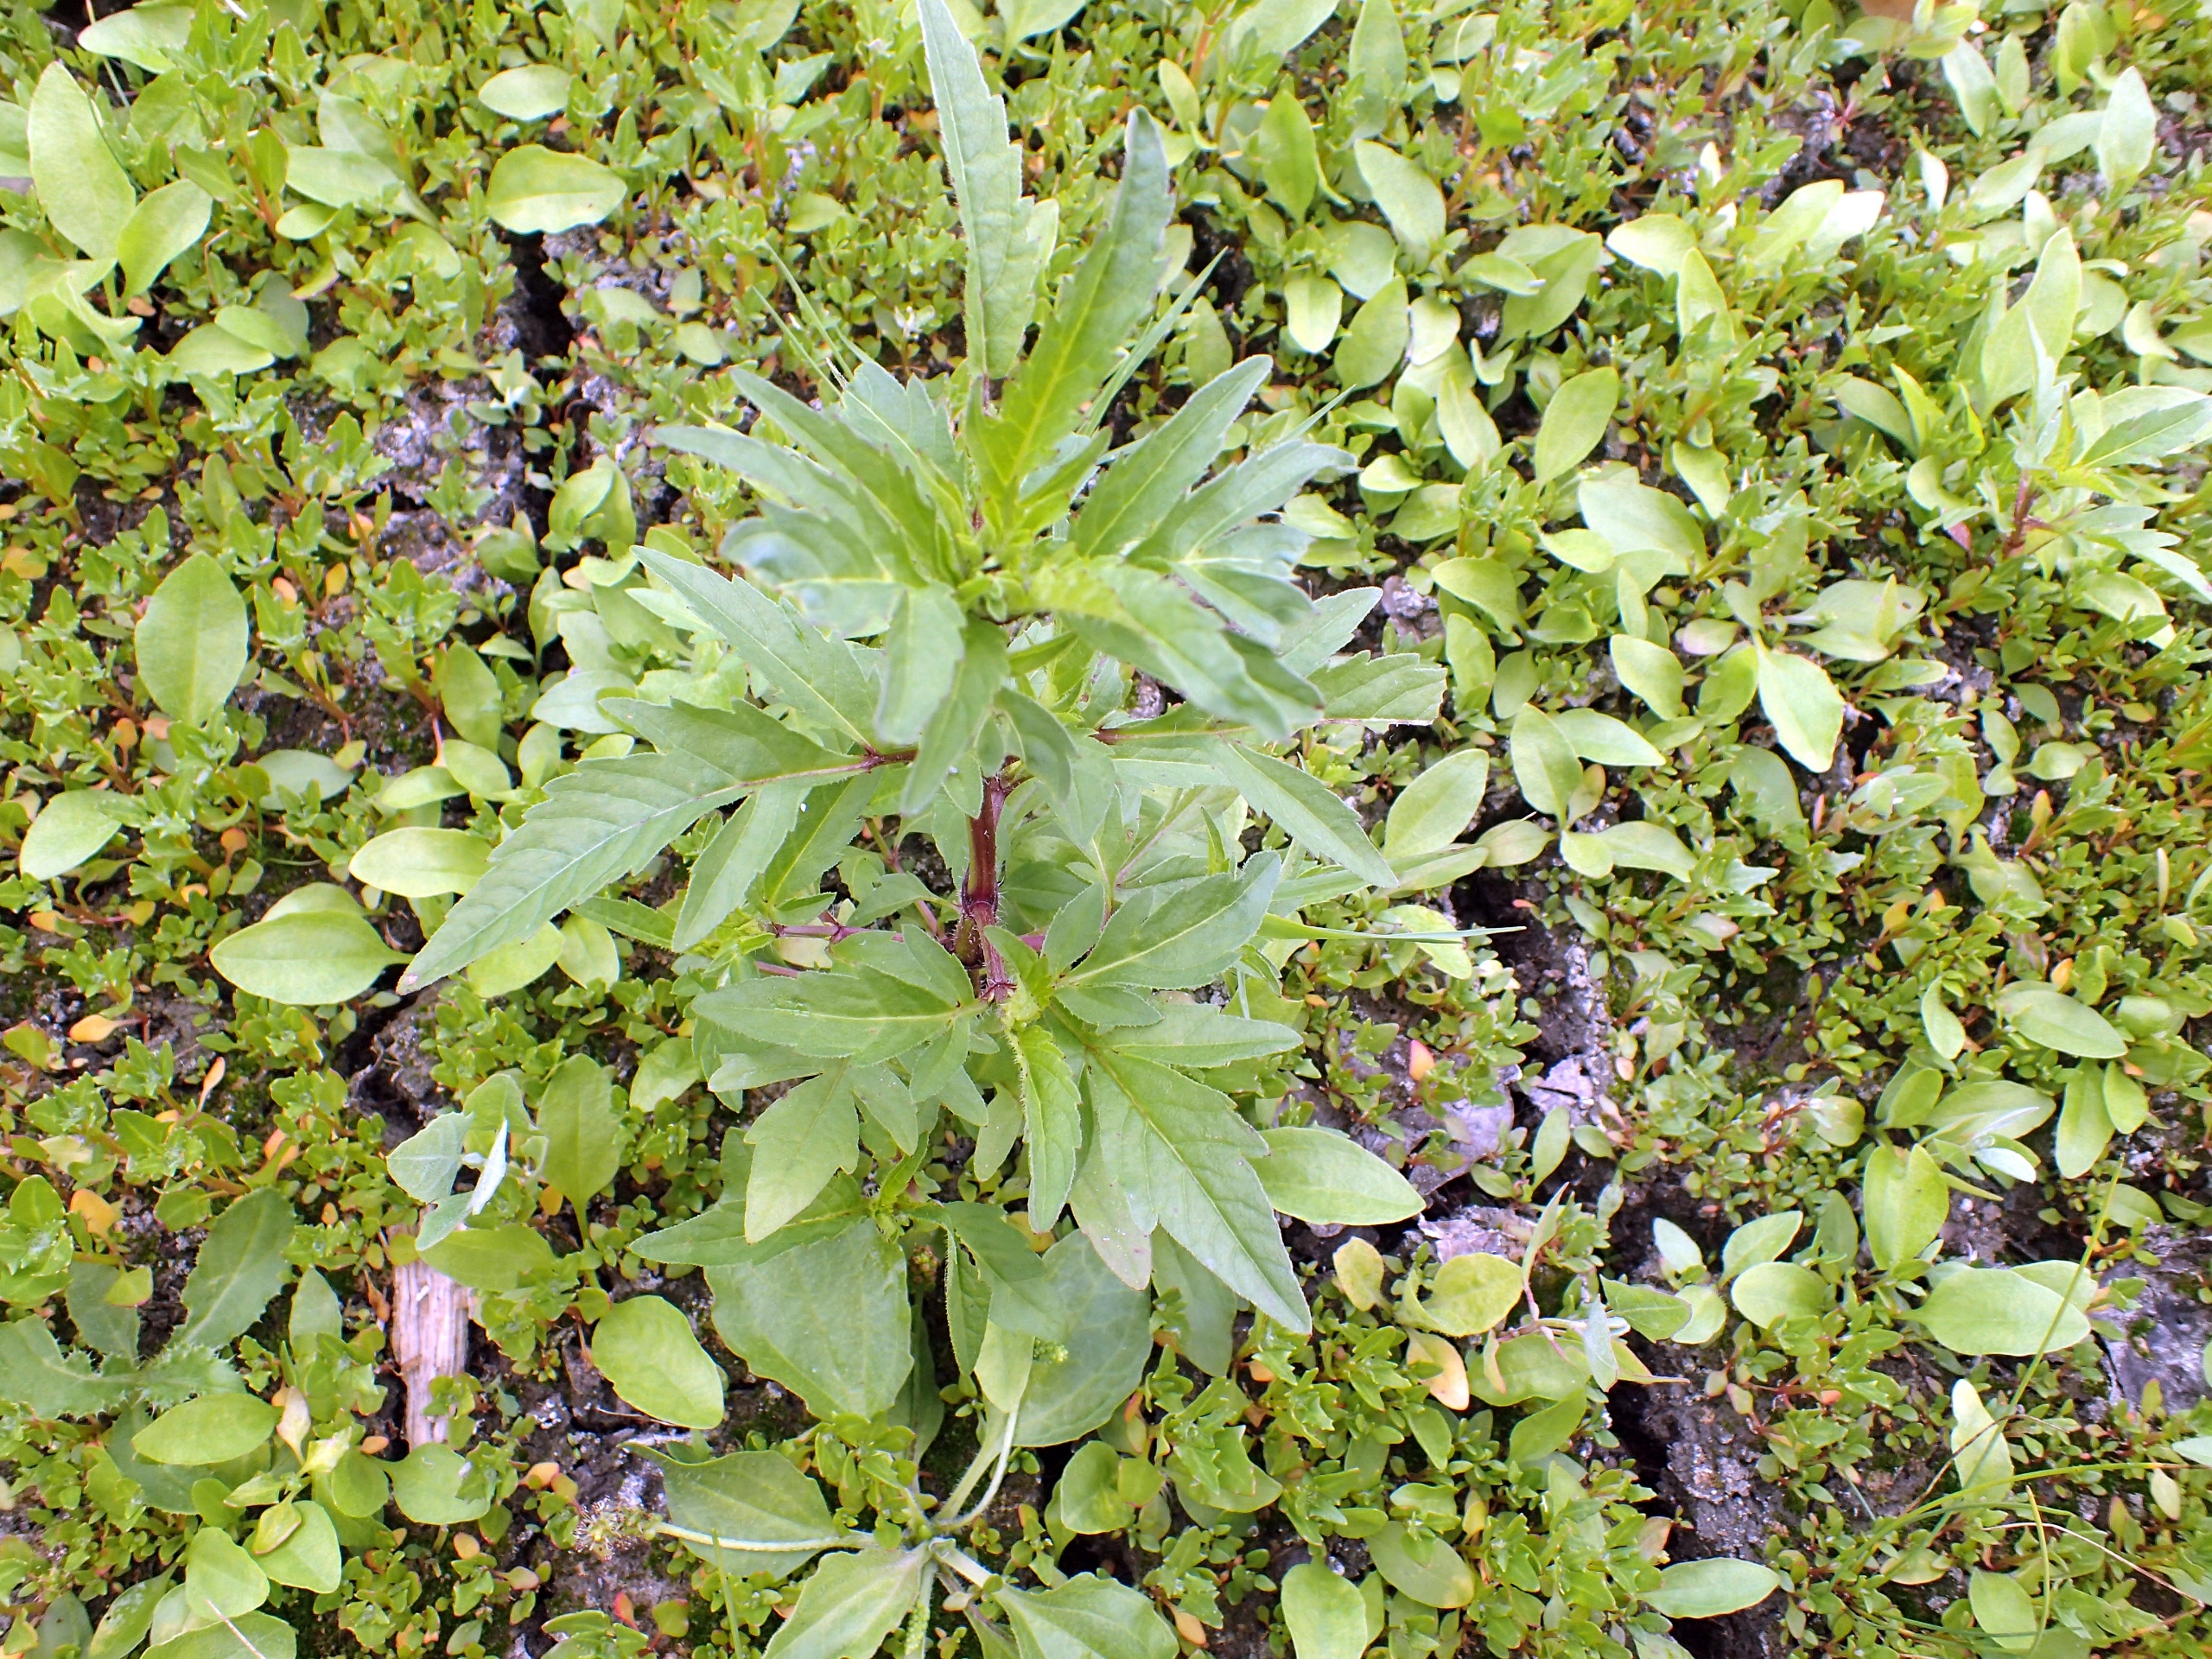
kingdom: Plantae
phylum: Tracheophyta
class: Magnoliopsida
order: Asterales
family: Asteraceae
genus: Bidens
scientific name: Bidens tripartita
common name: Fliget brøndsel
